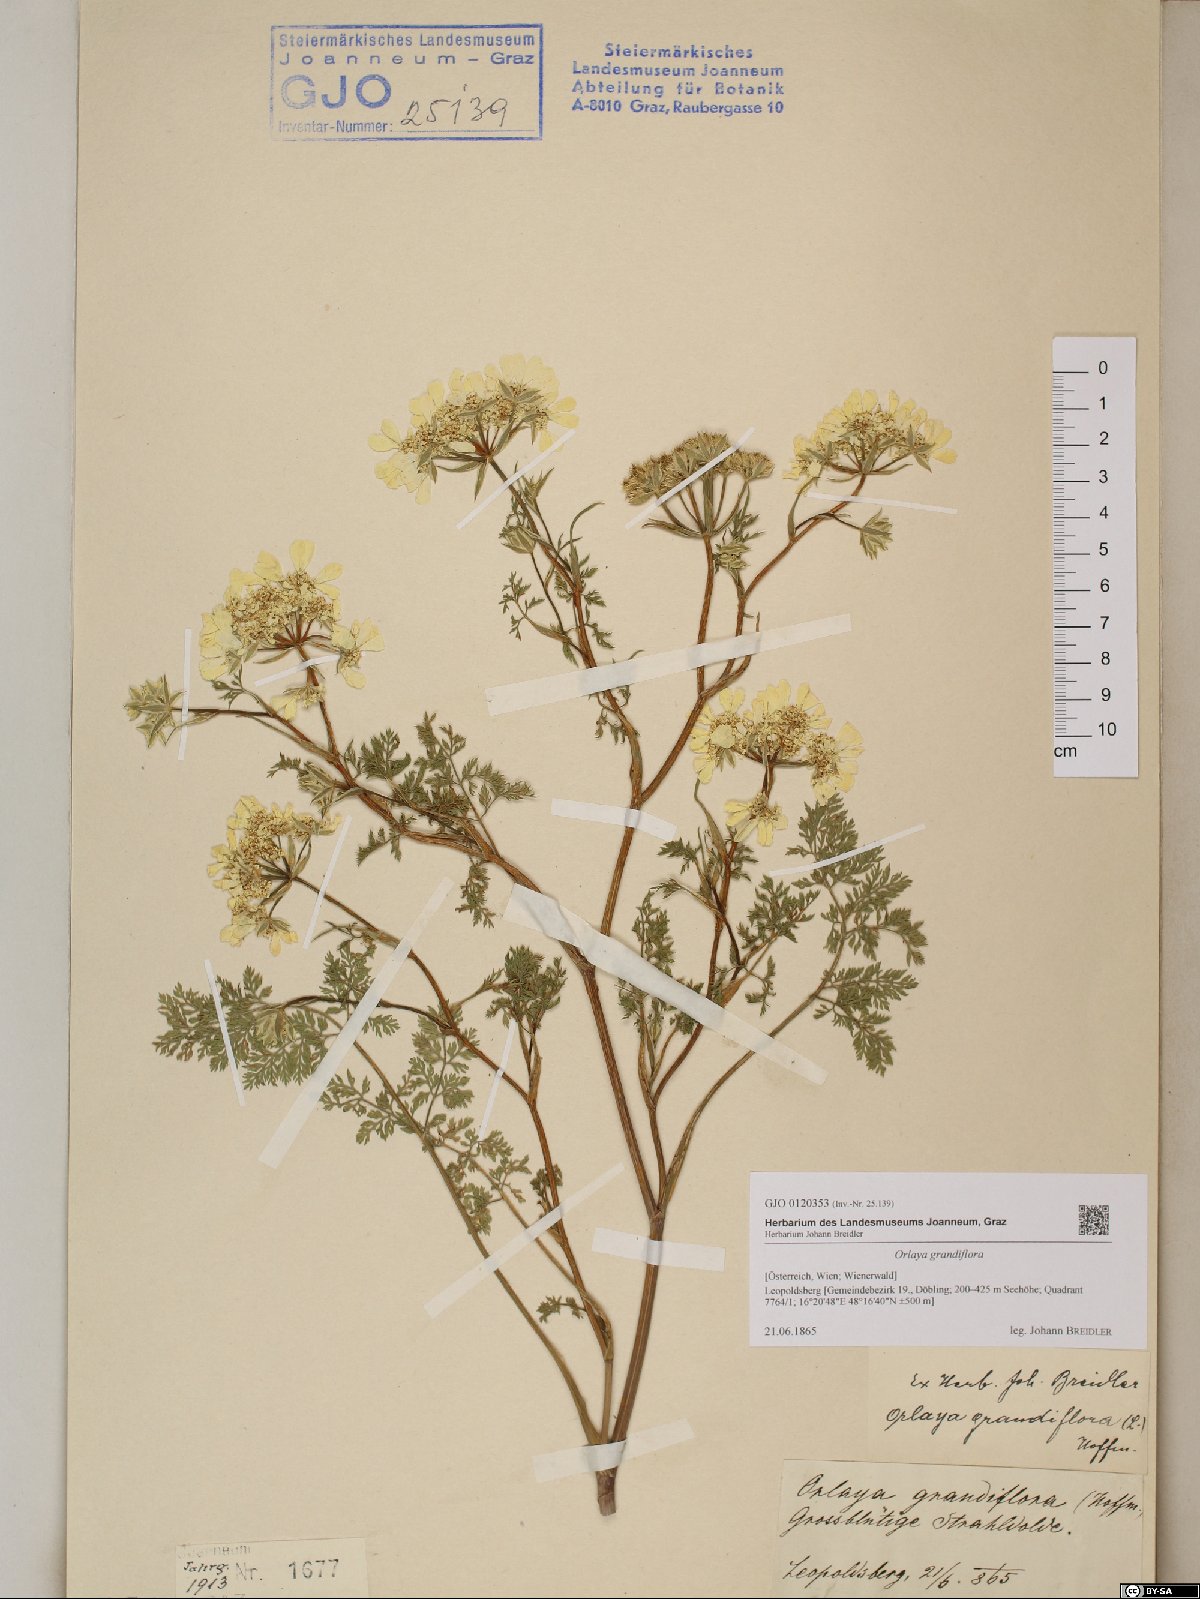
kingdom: Plantae
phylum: Tracheophyta
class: Magnoliopsida
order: Apiales
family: Apiaceae
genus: Orlaya
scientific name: Orlaya grandiflora
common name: White lace flower
